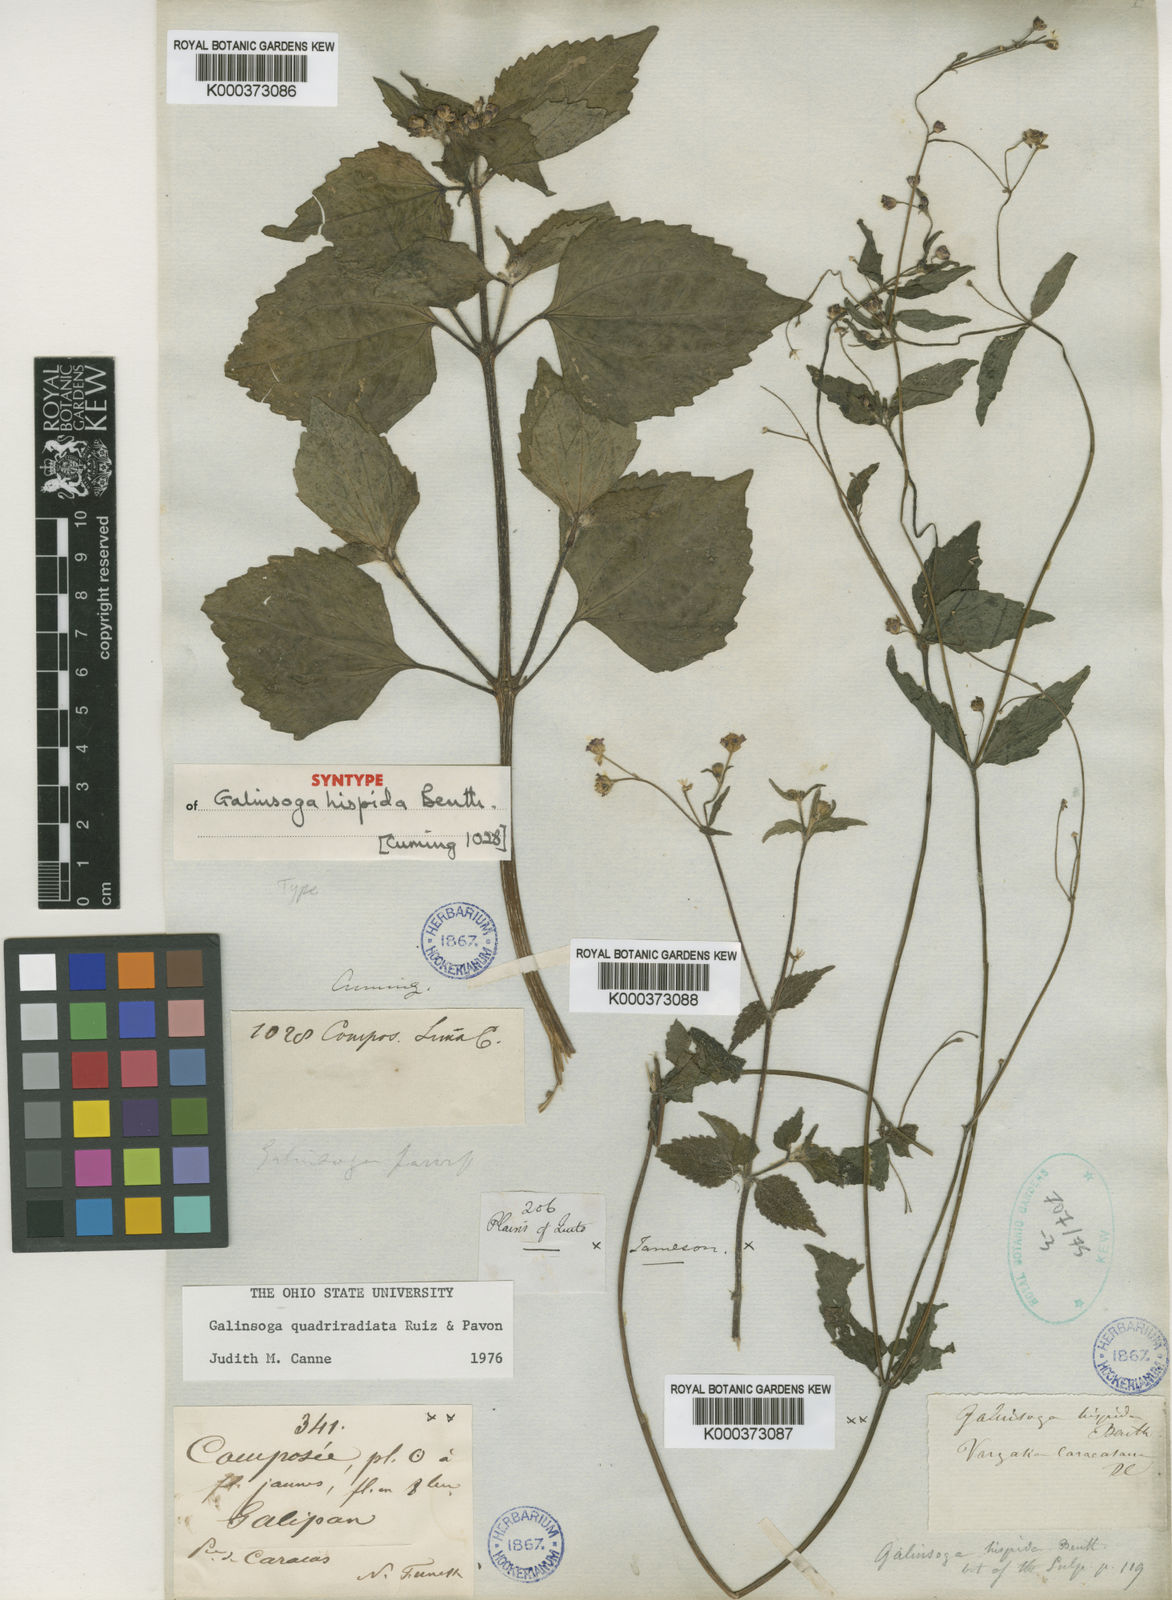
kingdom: Plantae
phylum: Tracheophyta
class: Magnoliopsida
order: Asterales
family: Asteraceae
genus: Galinsoga
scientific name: Galinsoga quadriradiata
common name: Shaggy soldier
